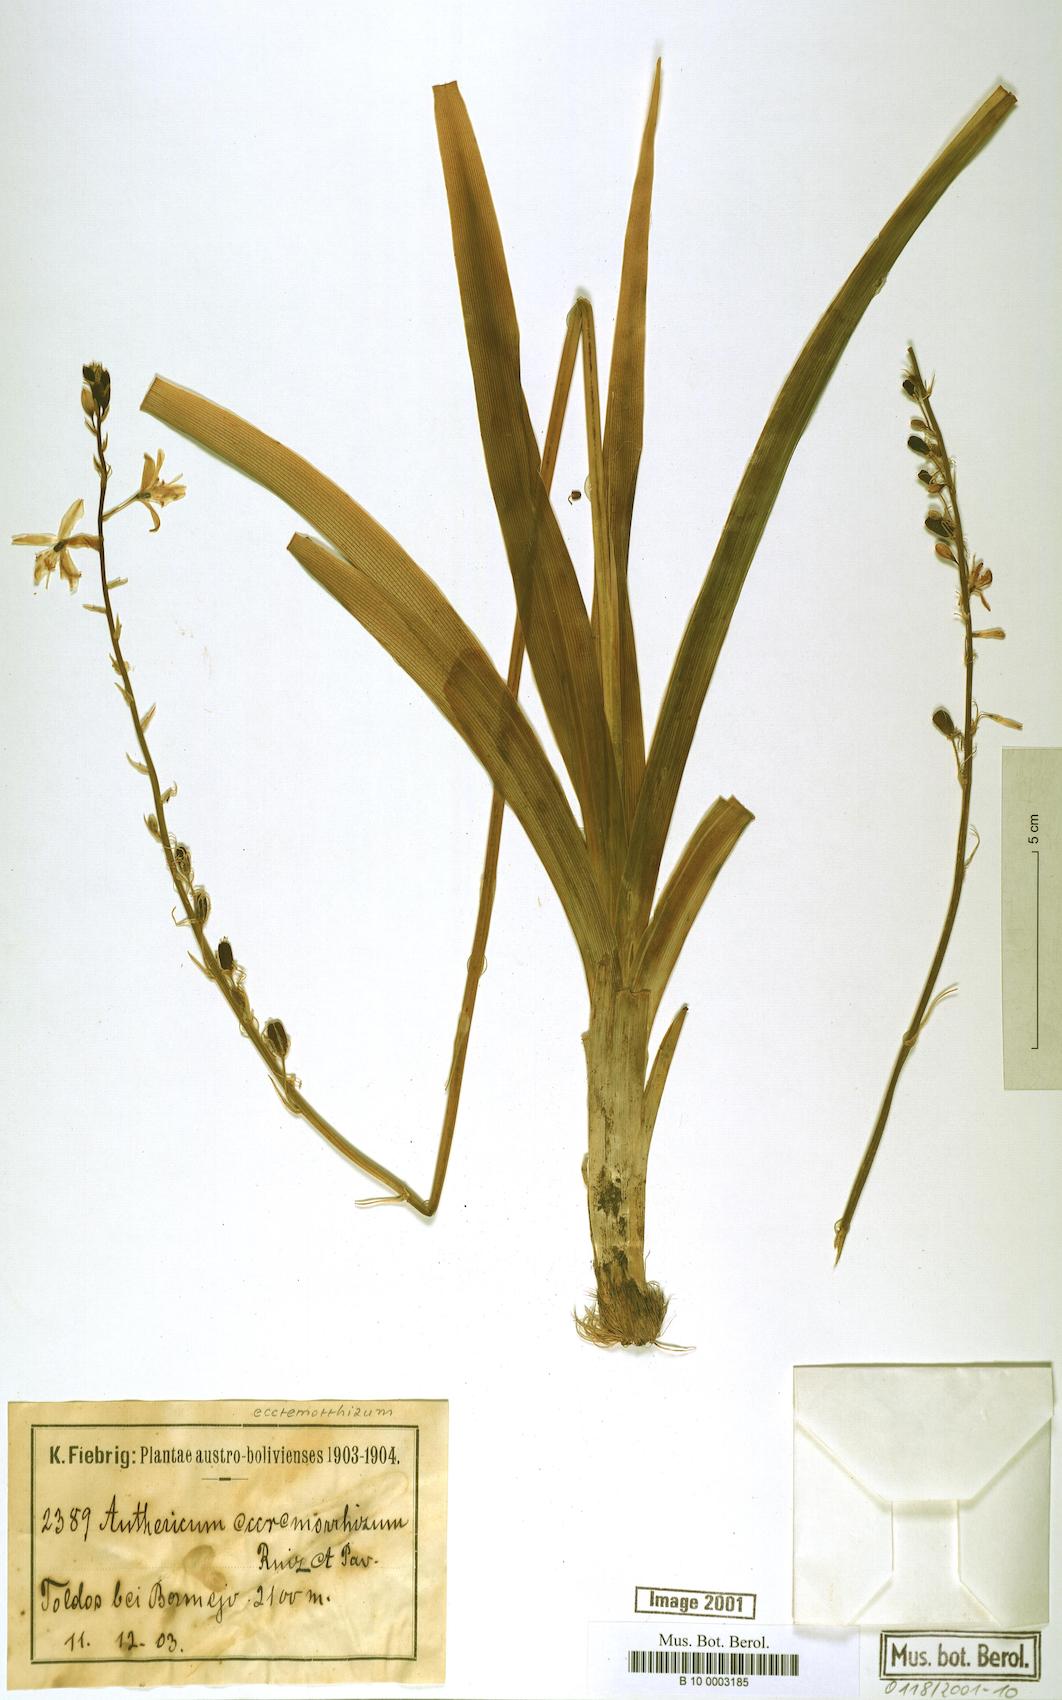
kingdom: Plantae
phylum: Tracheophyta
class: Liliopsida
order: Asparagales
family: Asparagaceae
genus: Echeandia
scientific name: Echeandia eccremorrhiza
